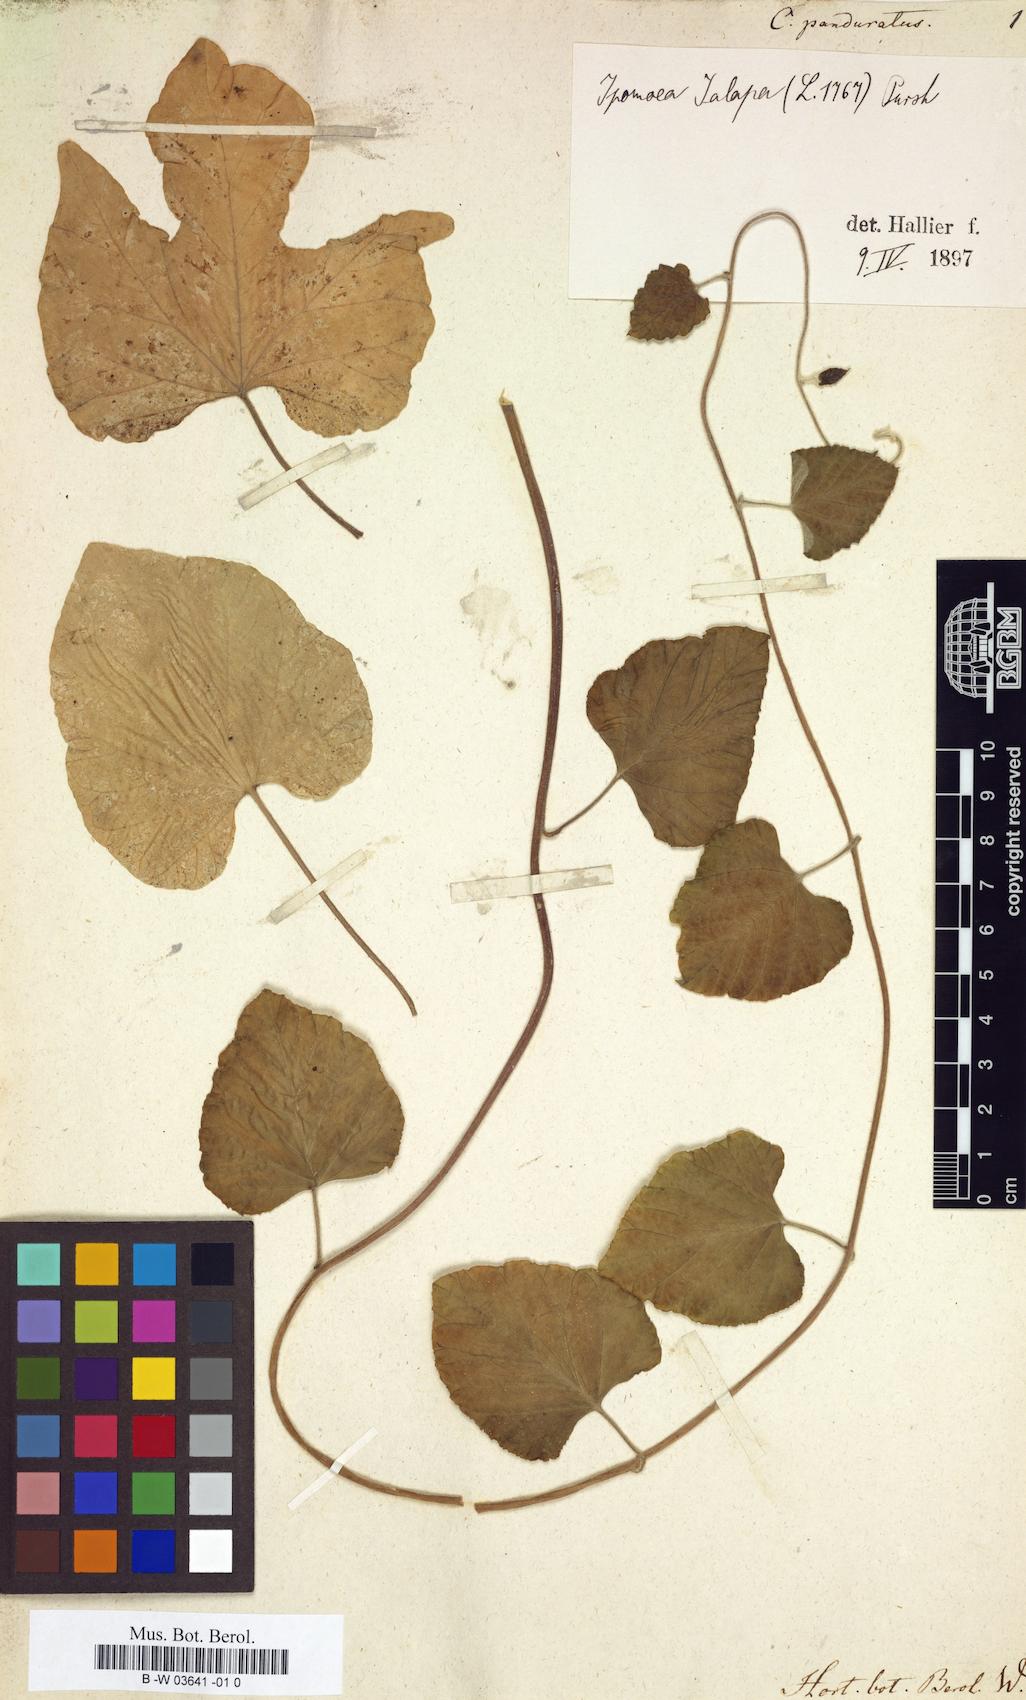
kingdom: Plantae
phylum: Tracheophyta
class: Magnoliopsida
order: Solanales
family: Convolvulaceae
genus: Convolvulus
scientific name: Convolvulus panduratus
